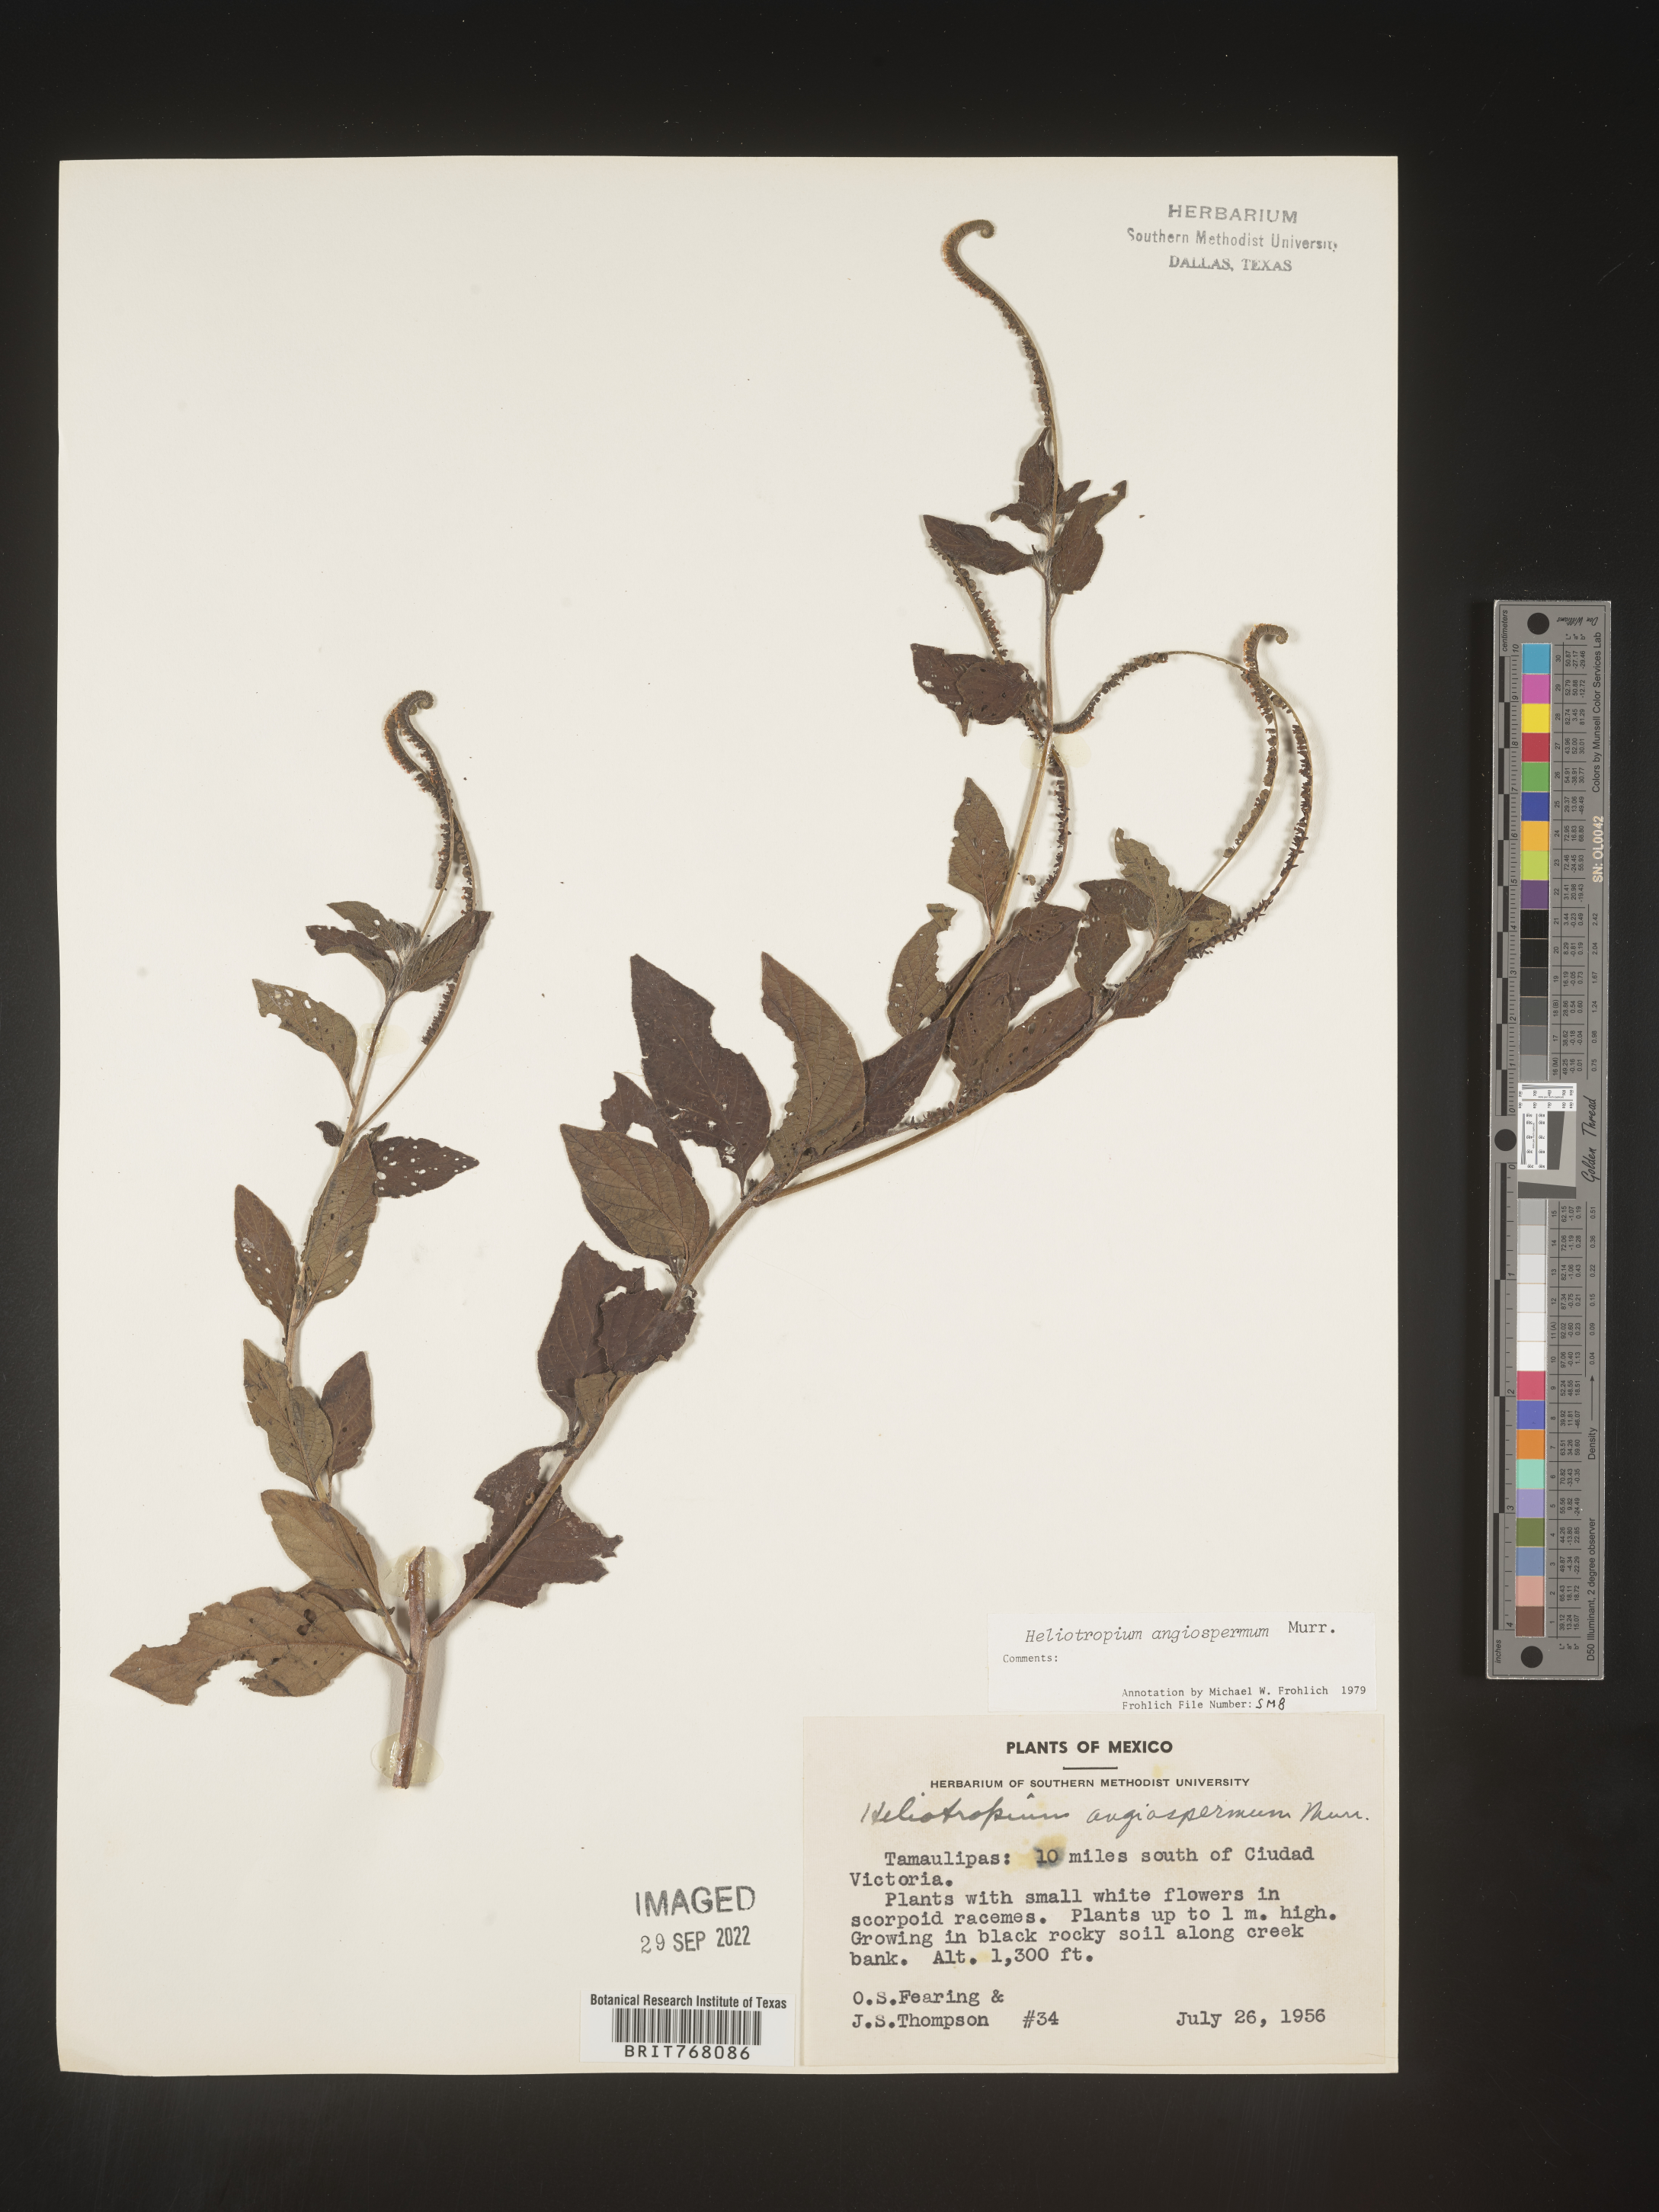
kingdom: Plantae
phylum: Tracheophyta
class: Magnoliopsida
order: Boraginales
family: Heliotropiaceae
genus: Heliotropium
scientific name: Heliotropium
